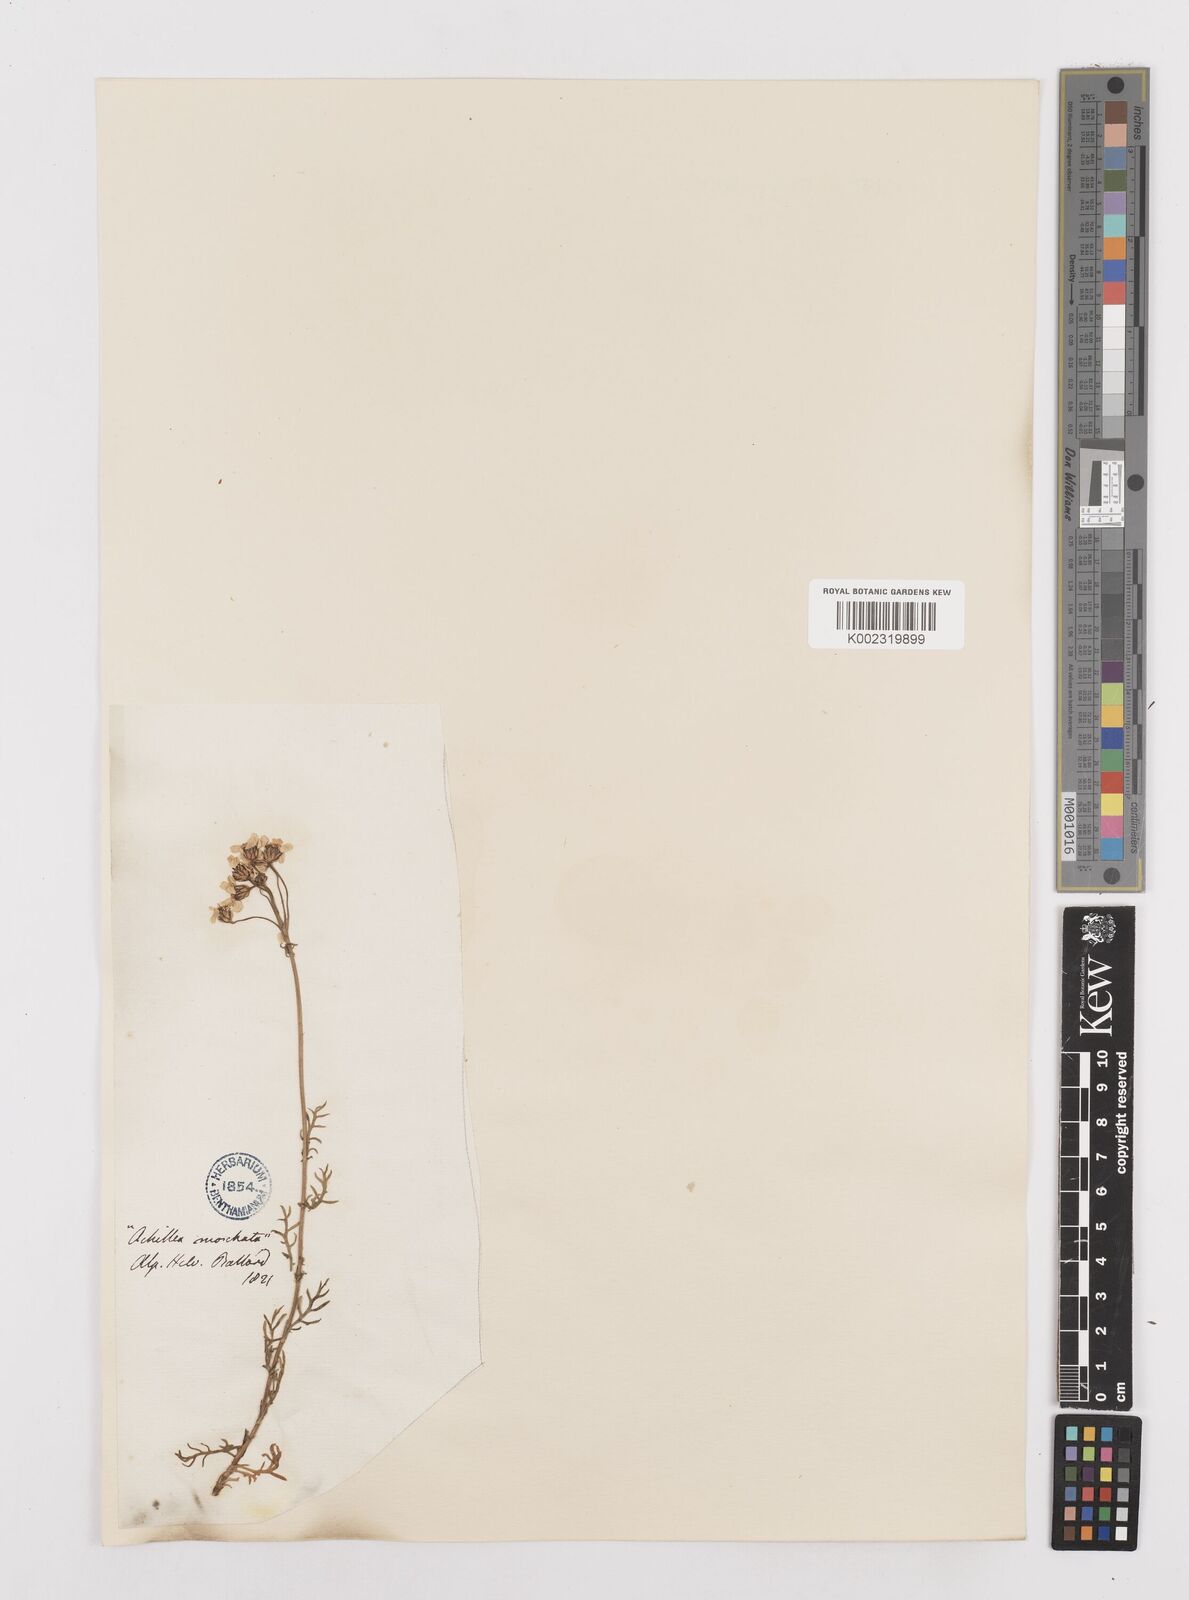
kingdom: Plantae
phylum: Tracheophyta
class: Magnoliopsida
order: Asterales
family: Asteraceae
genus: Achillea
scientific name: Achillea erba-rotta
